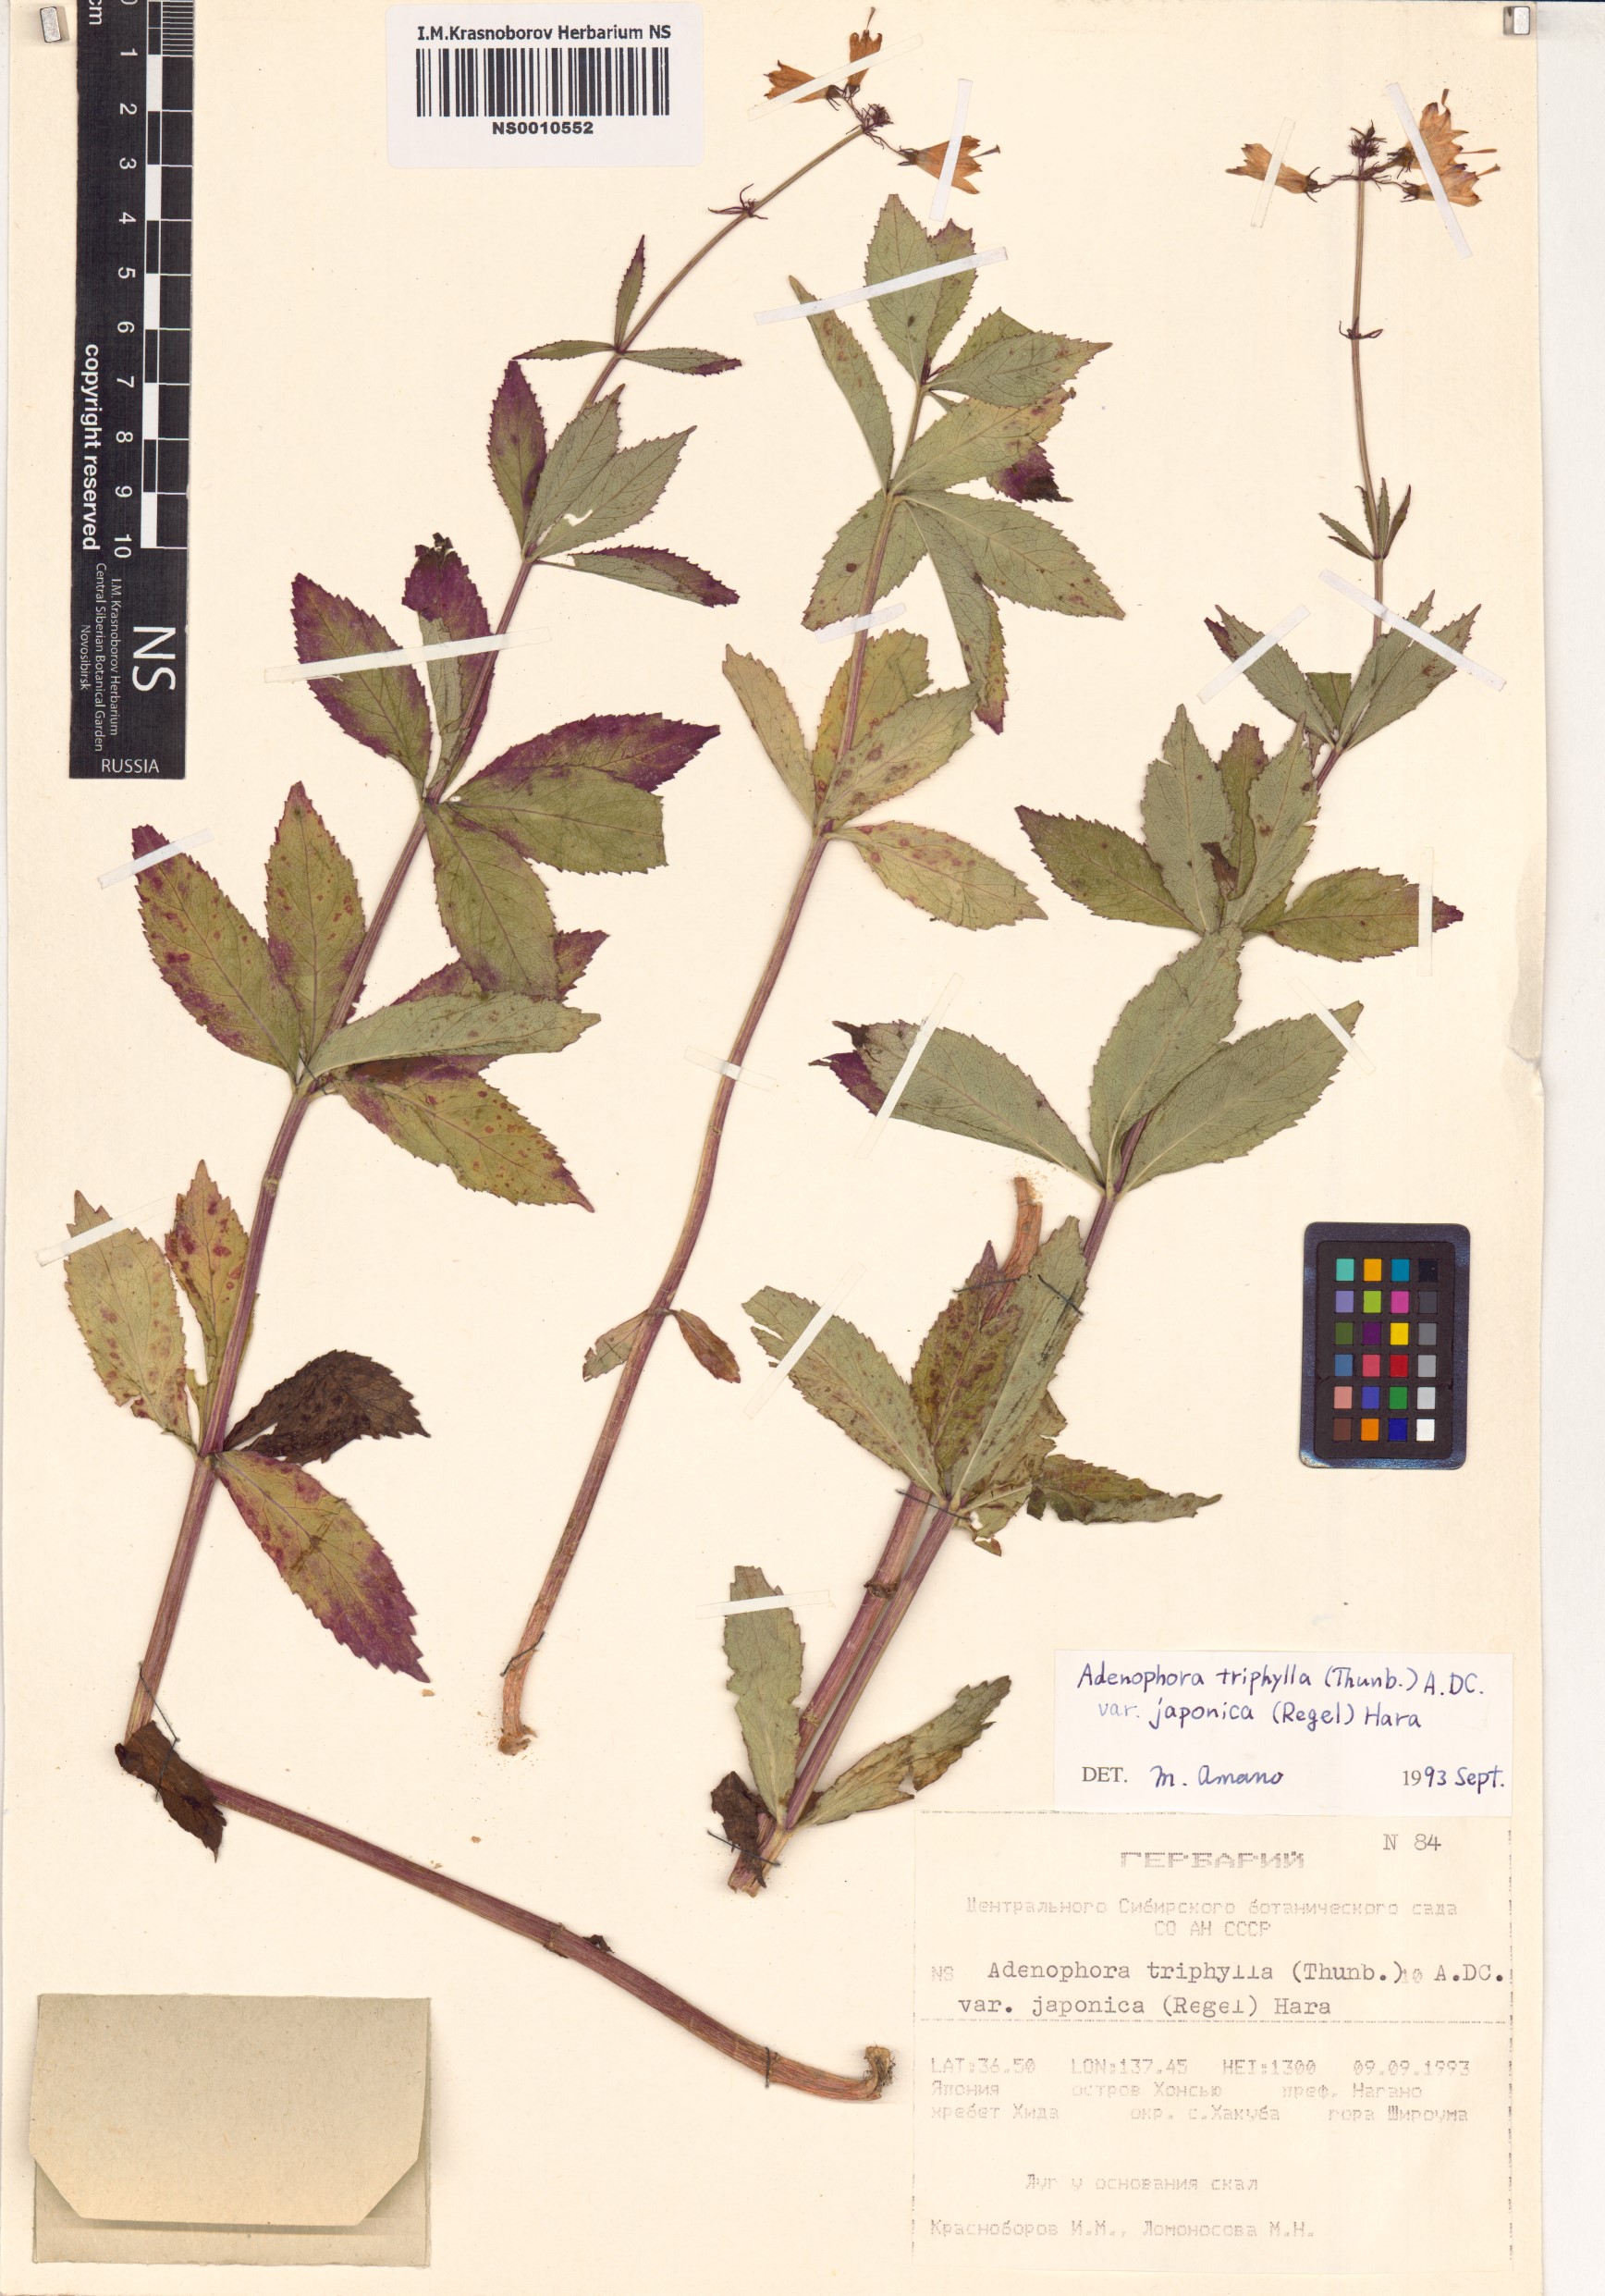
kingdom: Plantae
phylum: Tracheophyta
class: Magnoliopsida
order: Asterales
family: Campanulaceae
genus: Adenophora
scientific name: Adenophora triphylla
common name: Giant-bellflower
